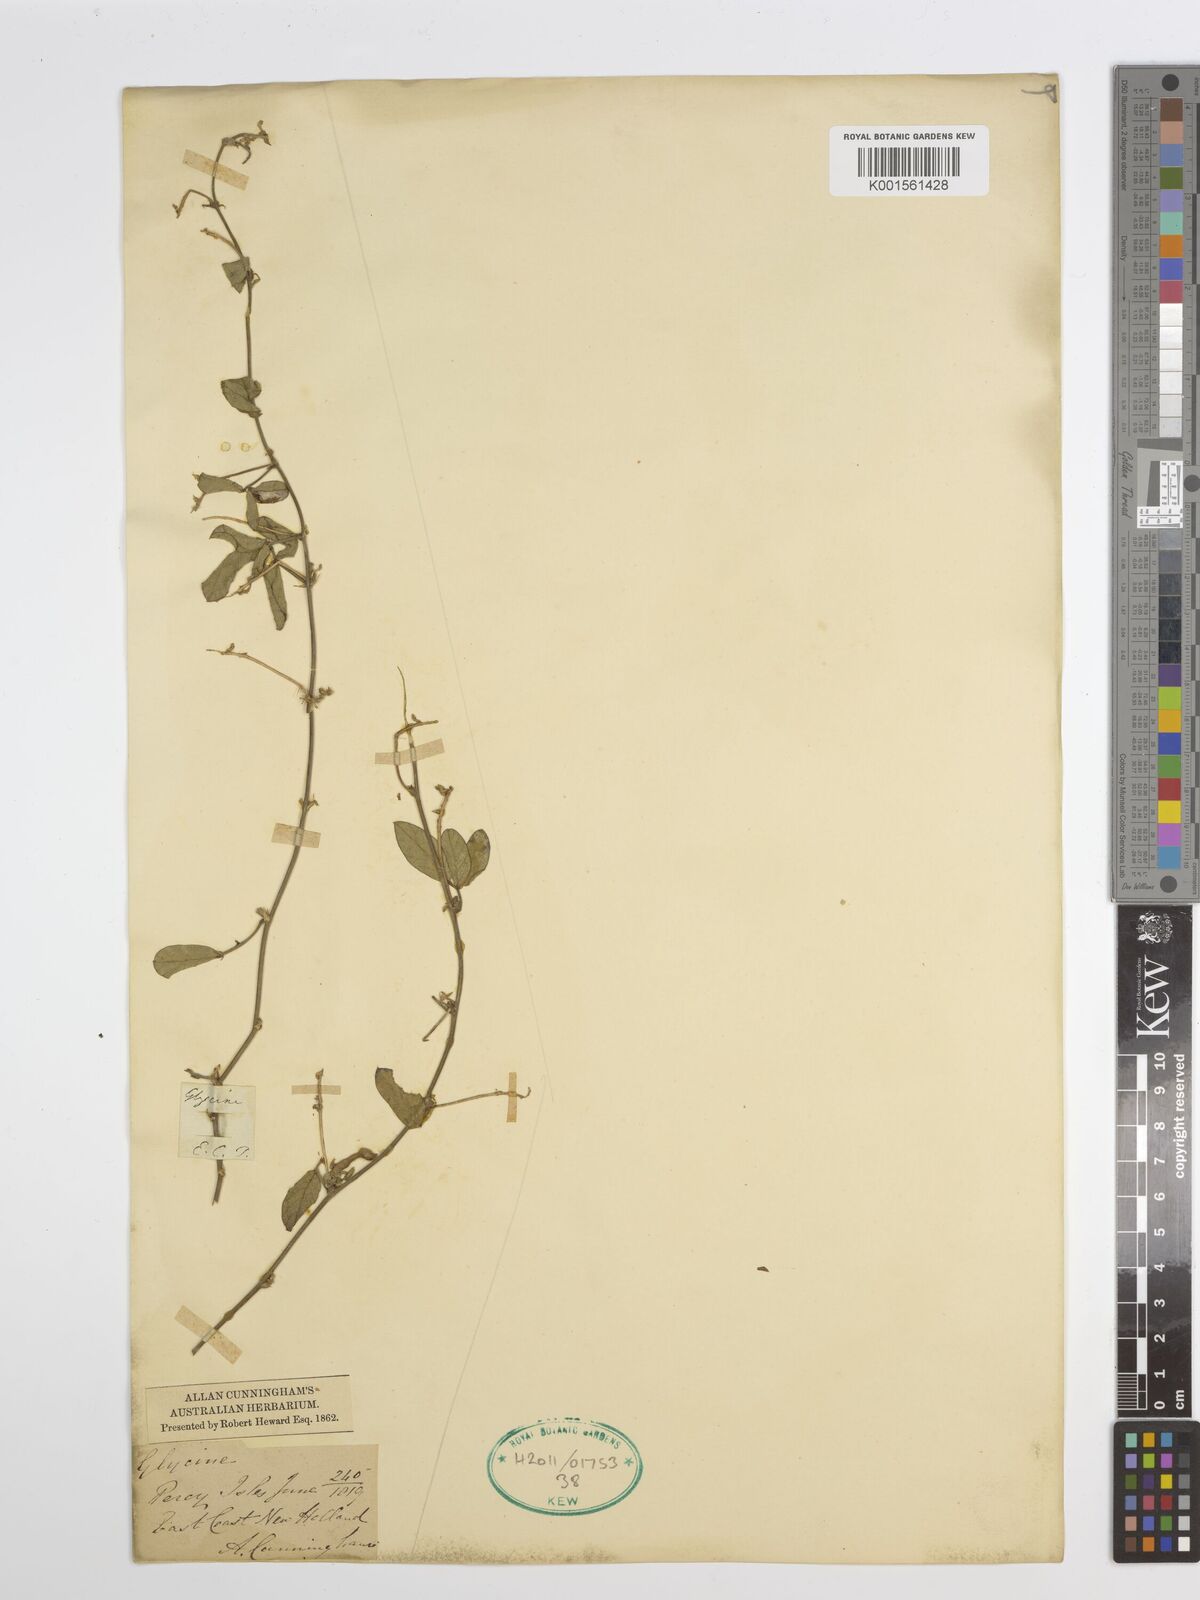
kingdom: Plantae
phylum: Tracheophyta
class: Magnoliopsida
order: Fabales
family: Fabaceae
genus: Glycine
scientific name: Glycine tomentella
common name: Hairy glycine
